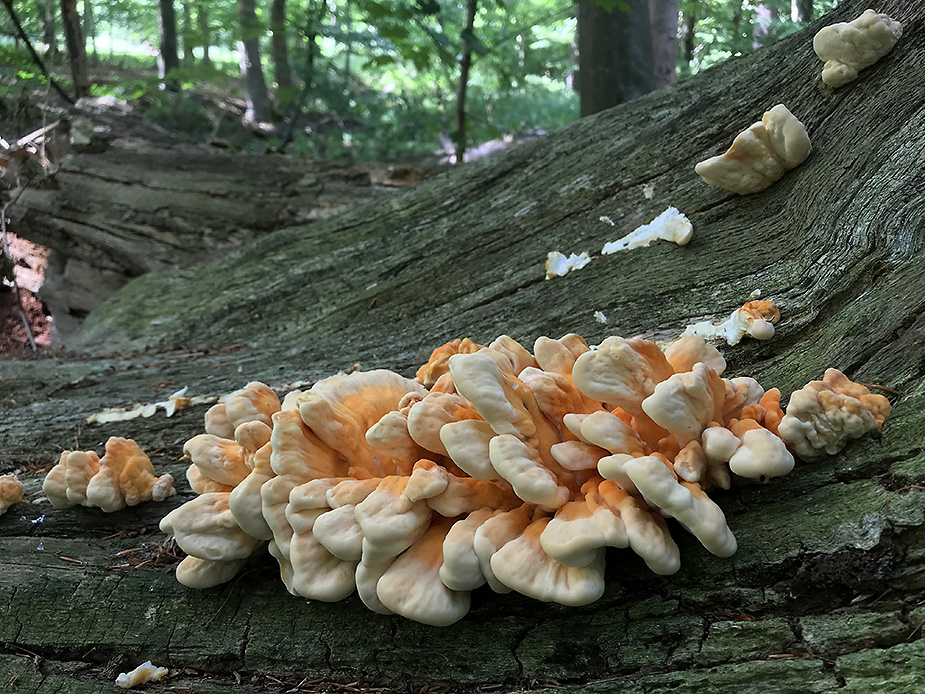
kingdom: Fungi
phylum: Basidiomycota
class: Agaricomycetes
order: Polyporales
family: Laetiporaceae
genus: Laetiporus
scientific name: Laetiporus sulphureus
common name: svovlporesvamp
